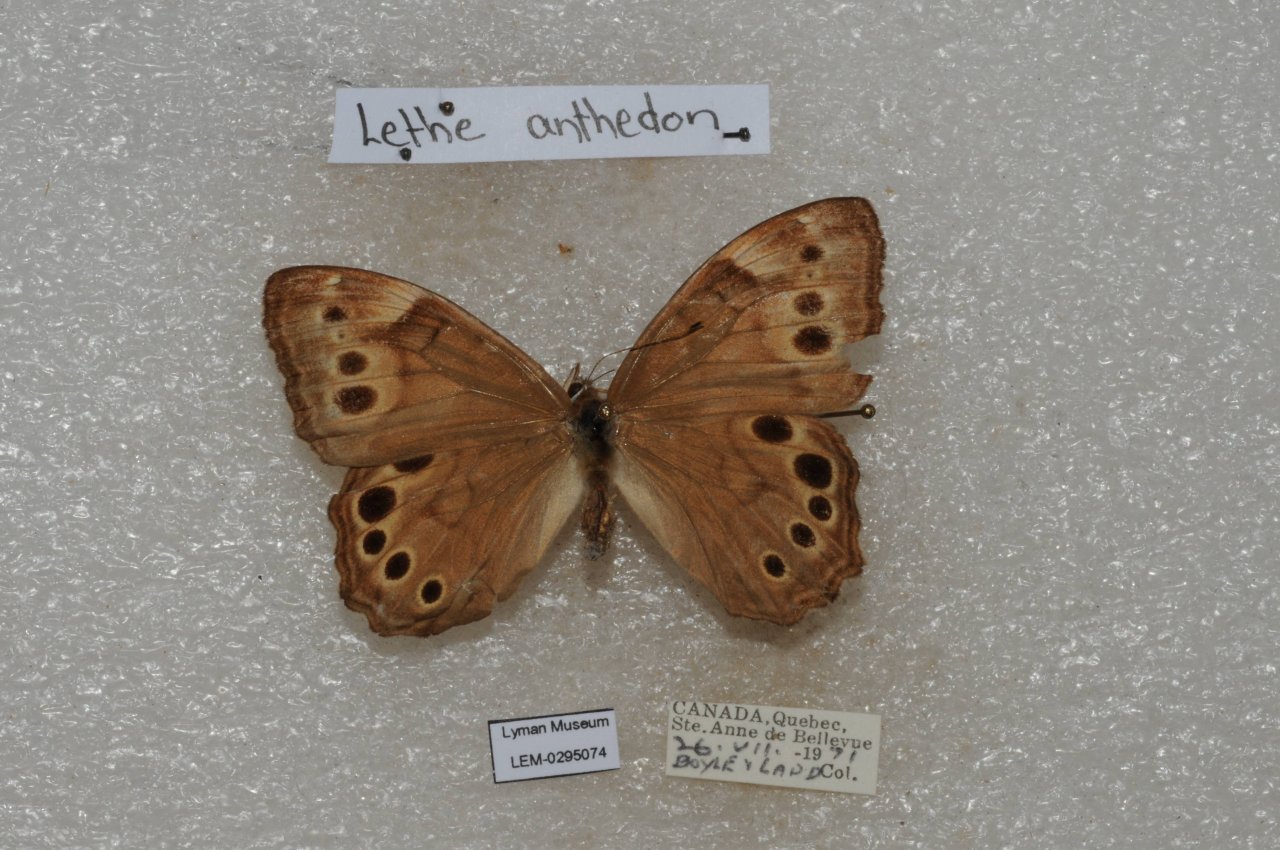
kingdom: Animalia
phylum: Arthropoda
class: Insecta
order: Lepidoptera
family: Nymphalidae
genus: Lethe
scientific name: Lethe anthedon
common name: Northern Pearly-Eye
